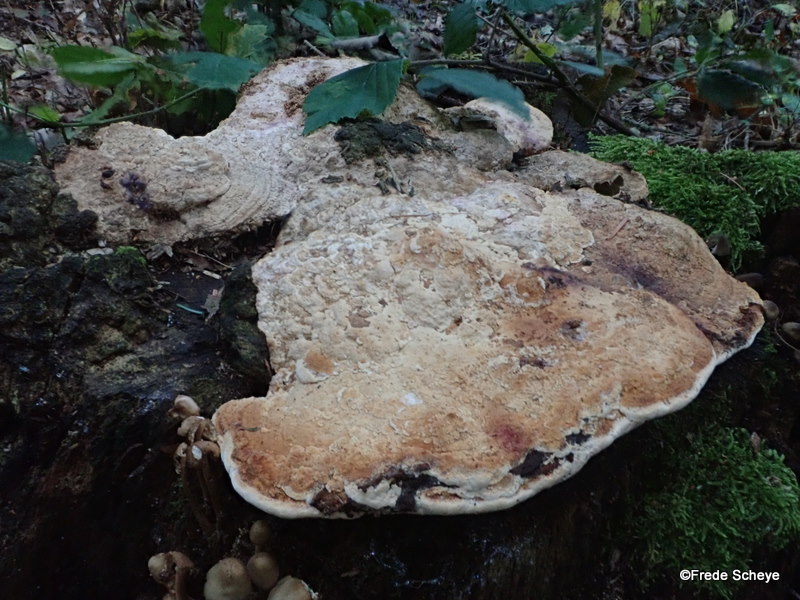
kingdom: Fungi
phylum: Basidiomycota
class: Agaricomycetes
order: Polyporales
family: Fomitopsidaceae
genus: Daedalea
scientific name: Daedalea quercina
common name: ege-labyrintsvamp
